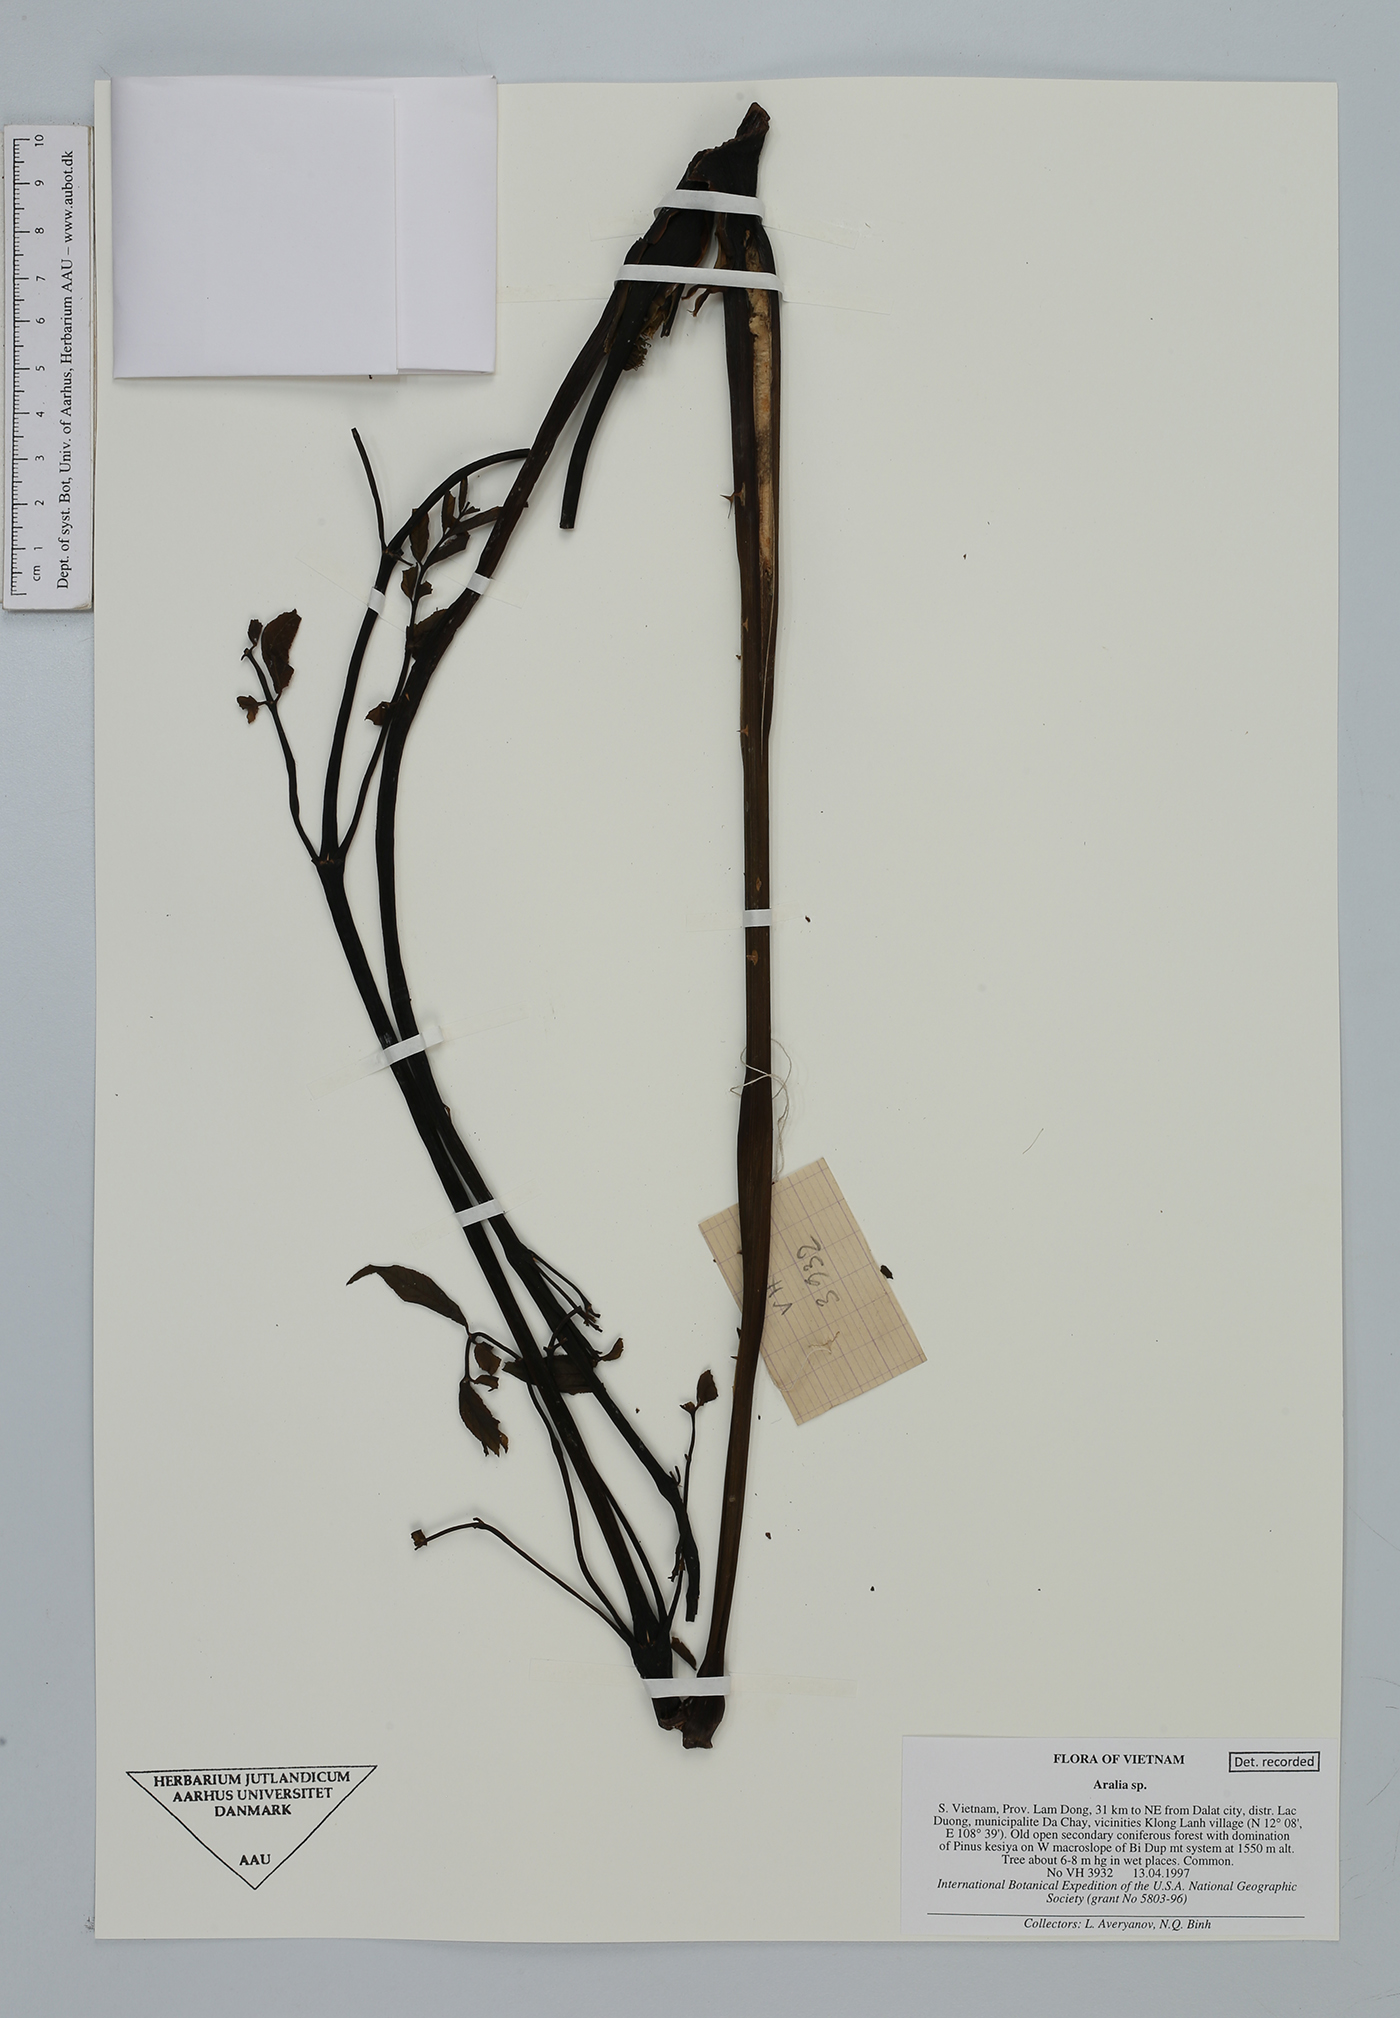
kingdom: Plantae
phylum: Tracheophyta
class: Magnoliopsida
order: Apiales
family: Araliaceae
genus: Aralia
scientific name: Aralia
